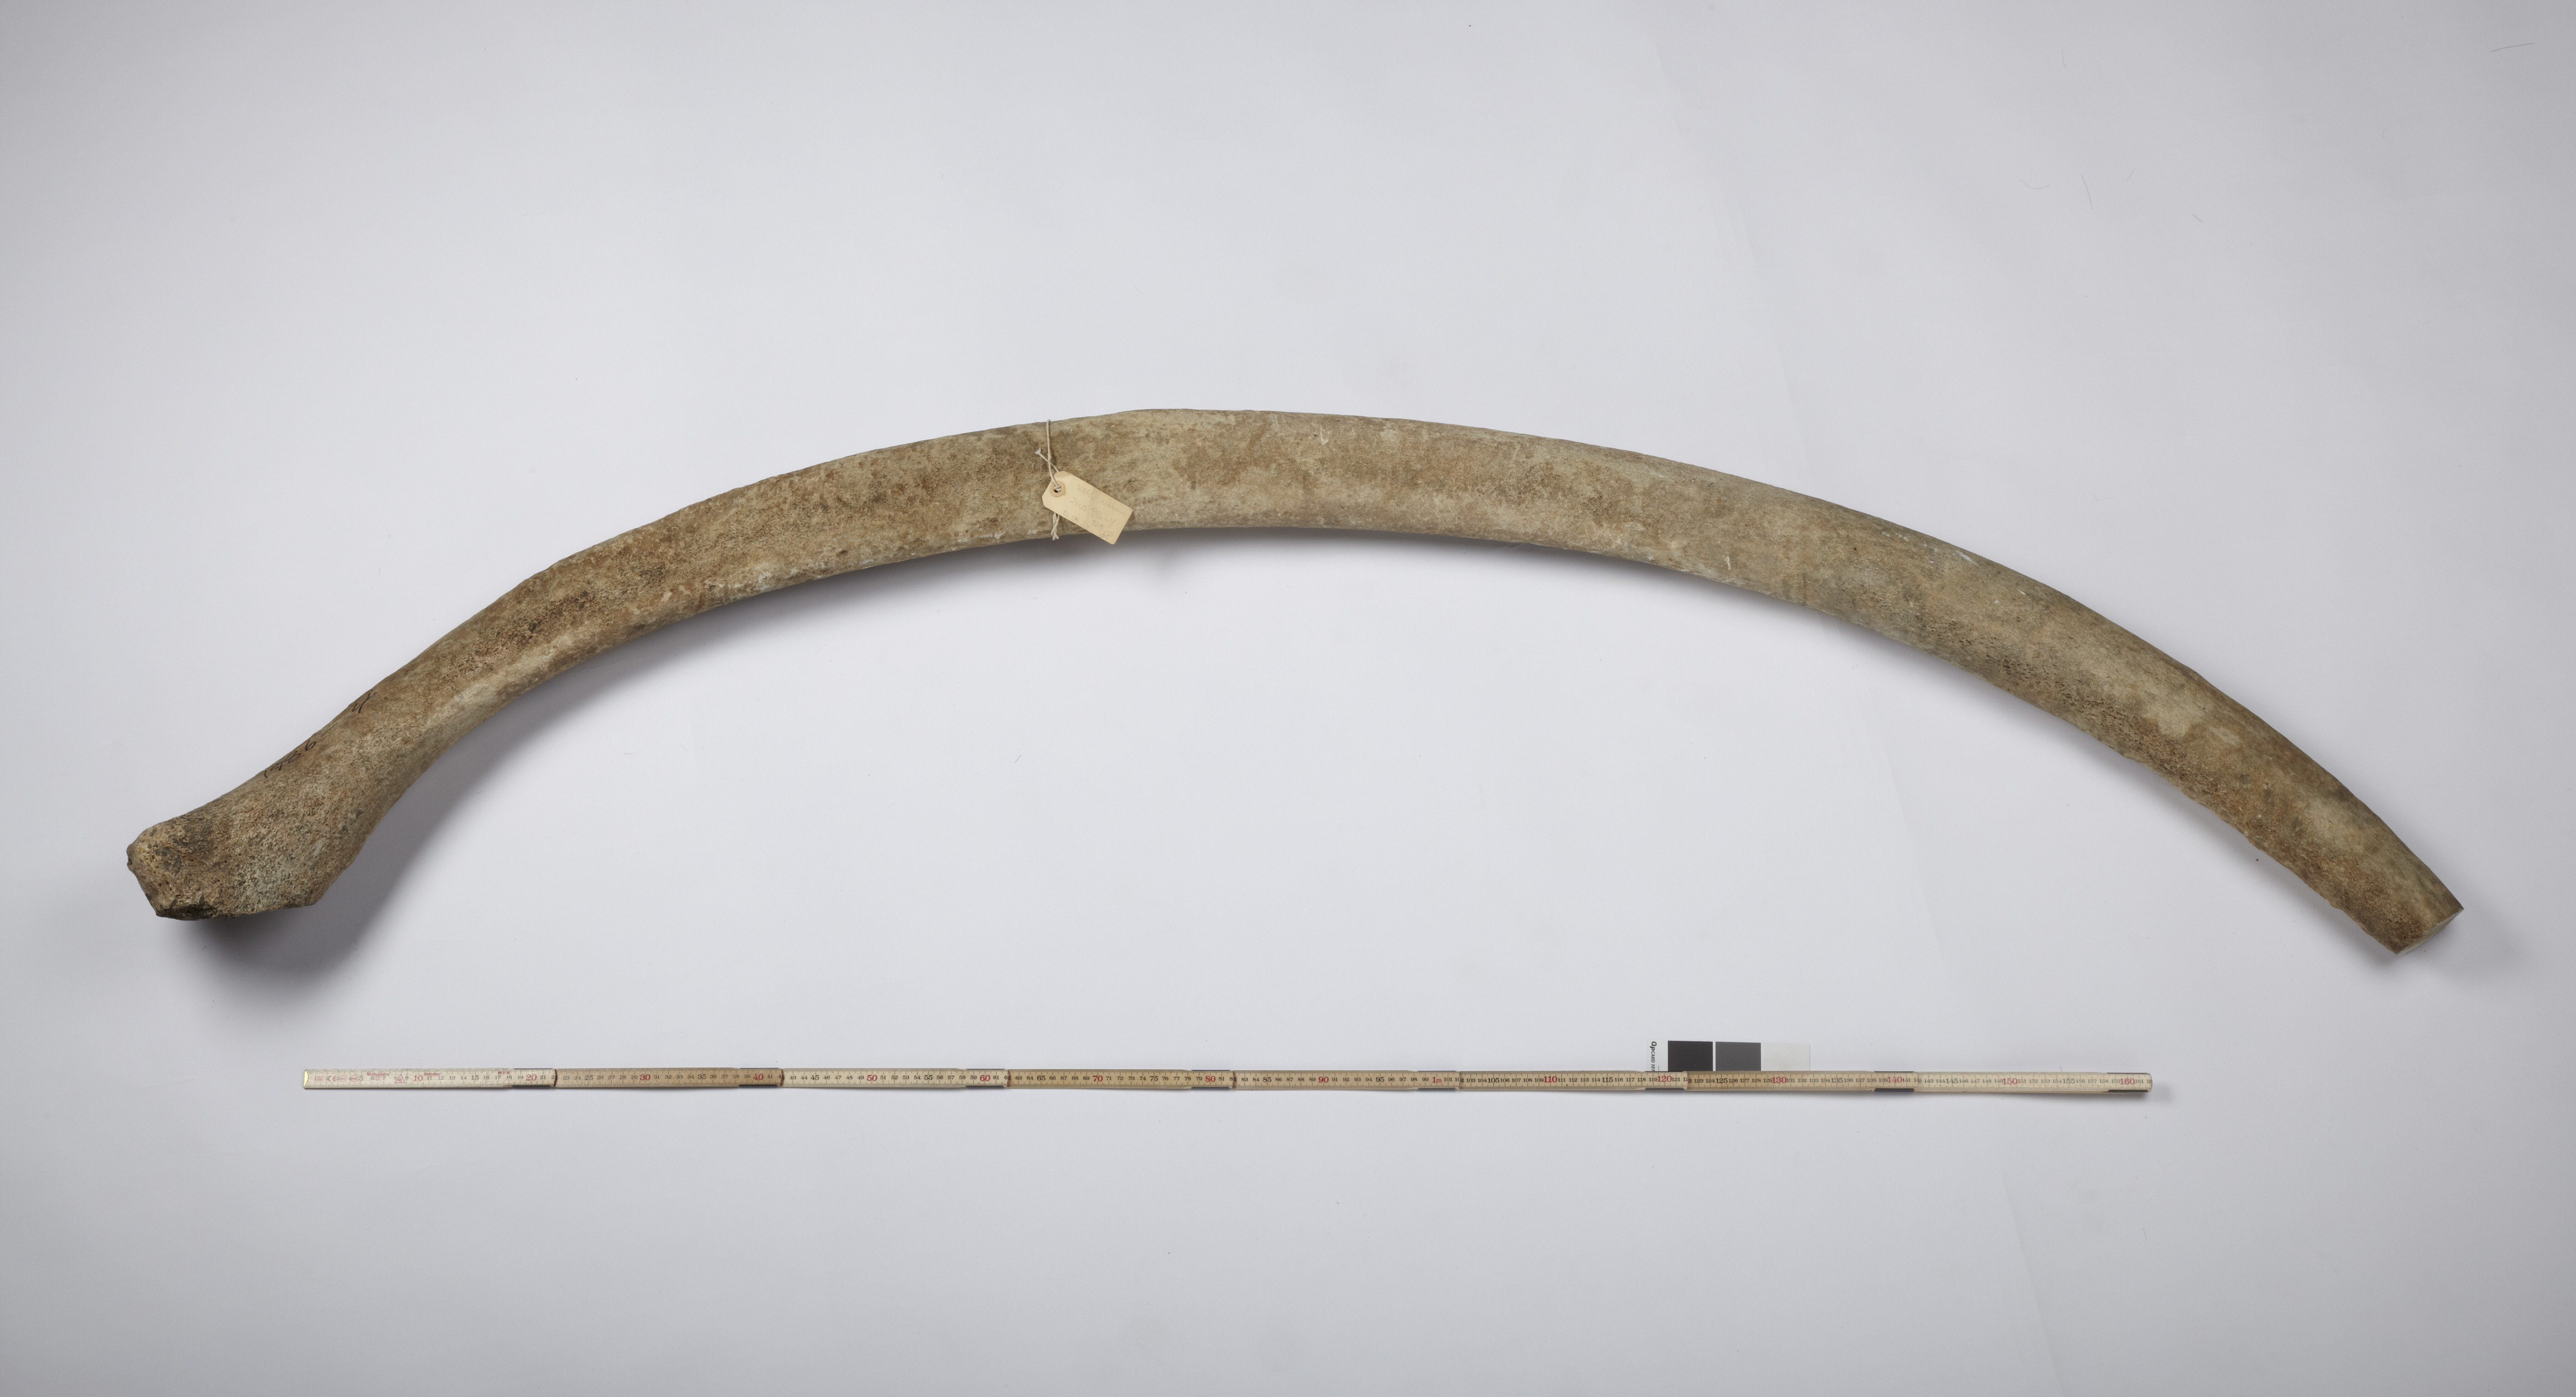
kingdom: Animalia
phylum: Chordata
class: Mammalia
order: Cetacea
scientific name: Cetacea
